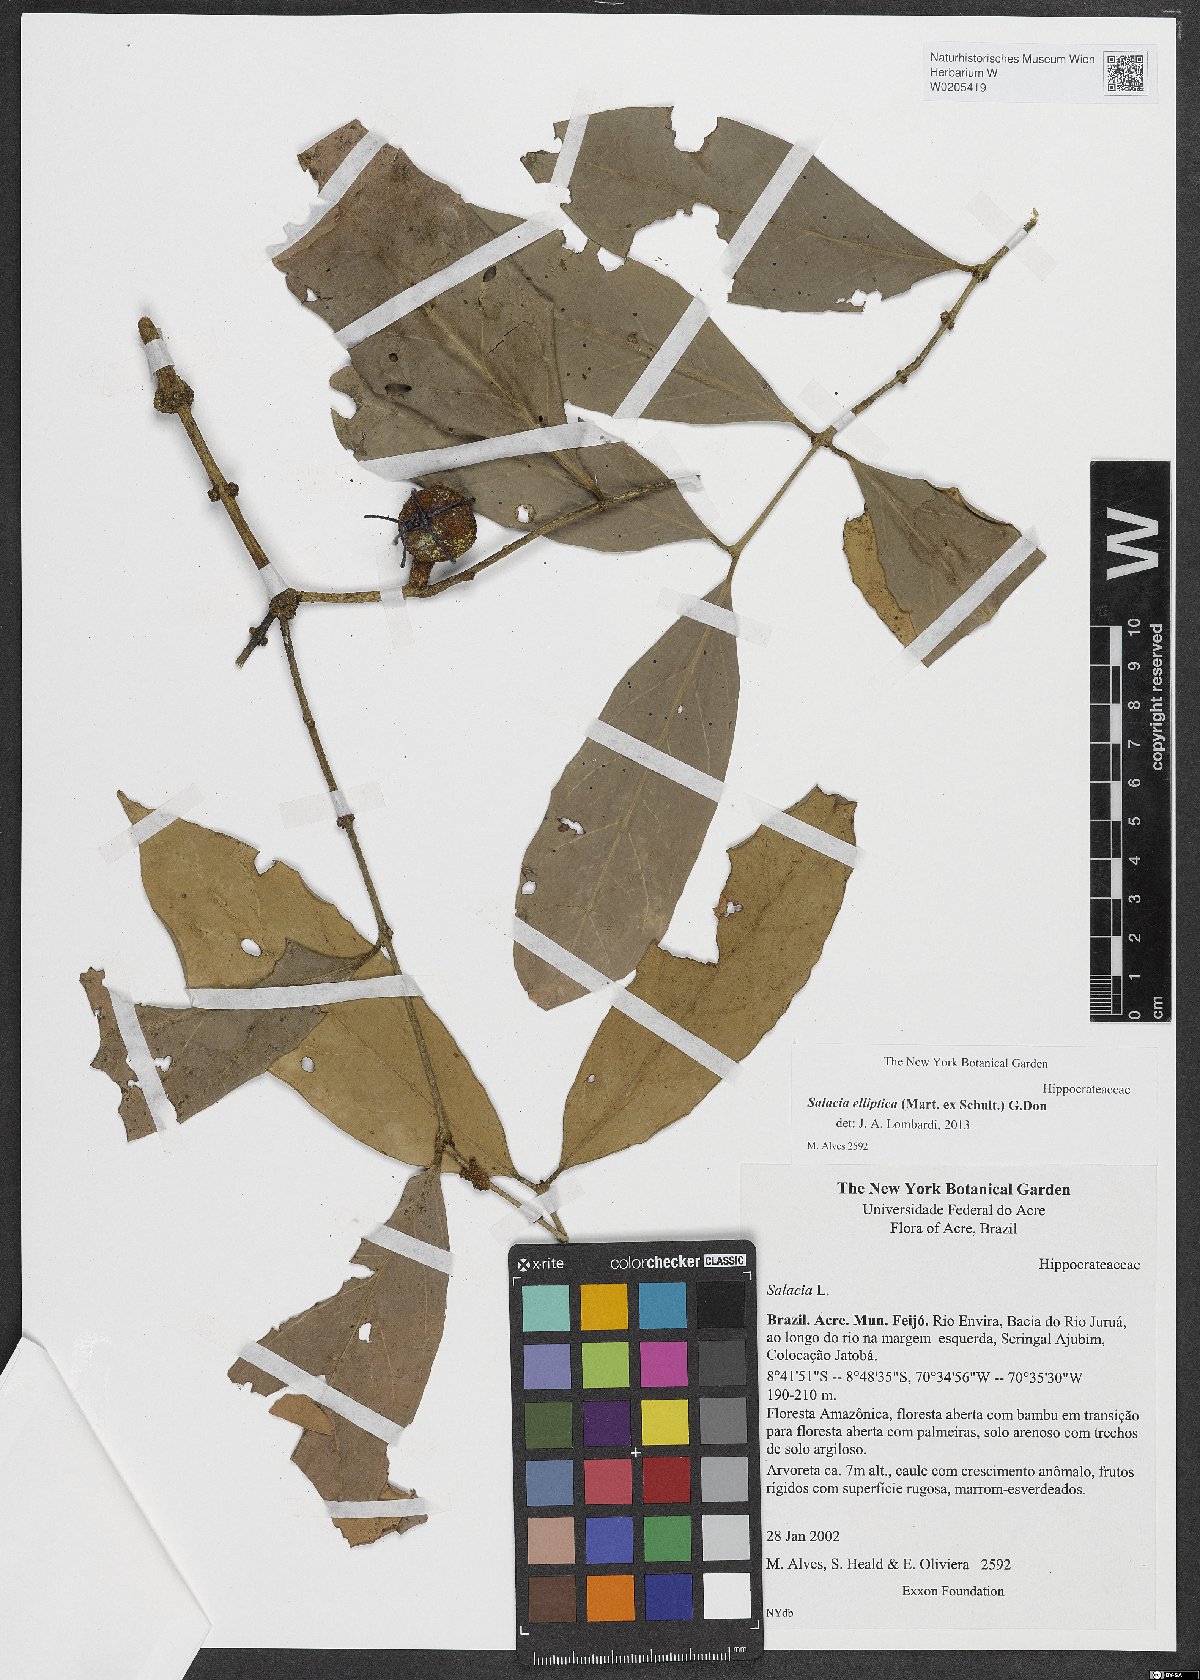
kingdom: Plantae
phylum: Tracheophyta
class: Magnoliopsida
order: Celastrales
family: Celastraceae
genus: Salacia
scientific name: Salacia elliptica
